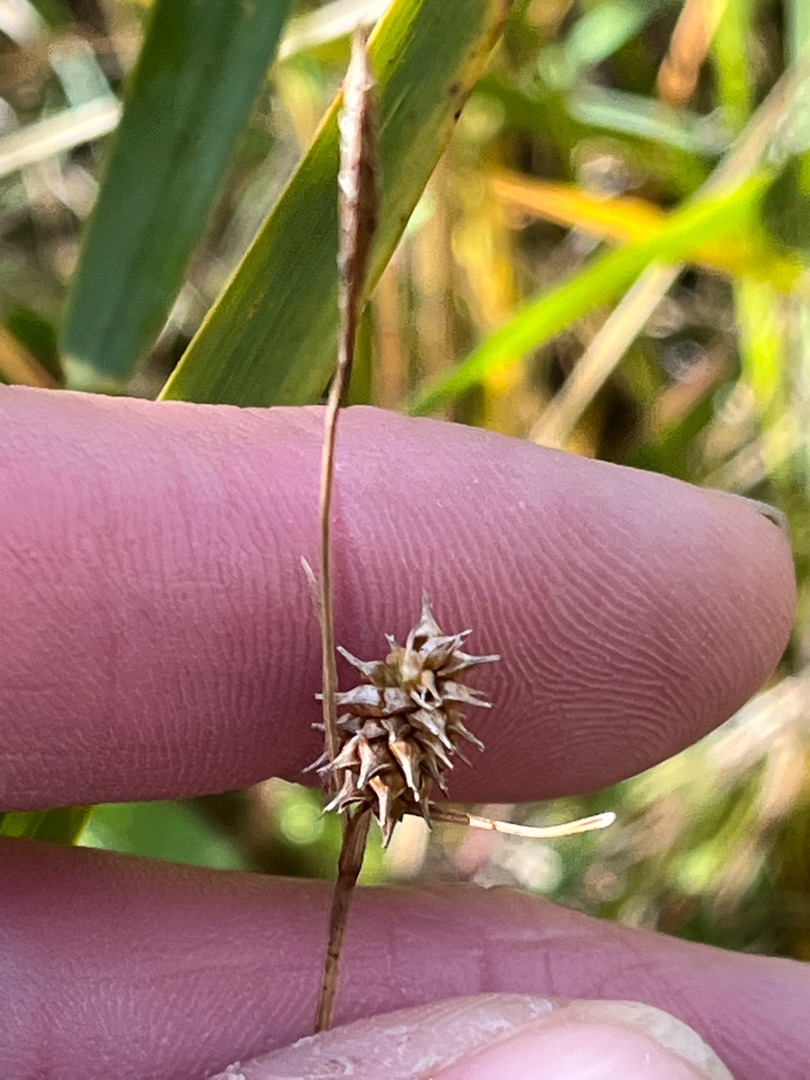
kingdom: Plantae
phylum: Tracheophyta
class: Liliopsida
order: Poales
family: Cyperaceae
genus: Carex
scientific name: Carex lepidocarpa
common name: Krognæb-star
